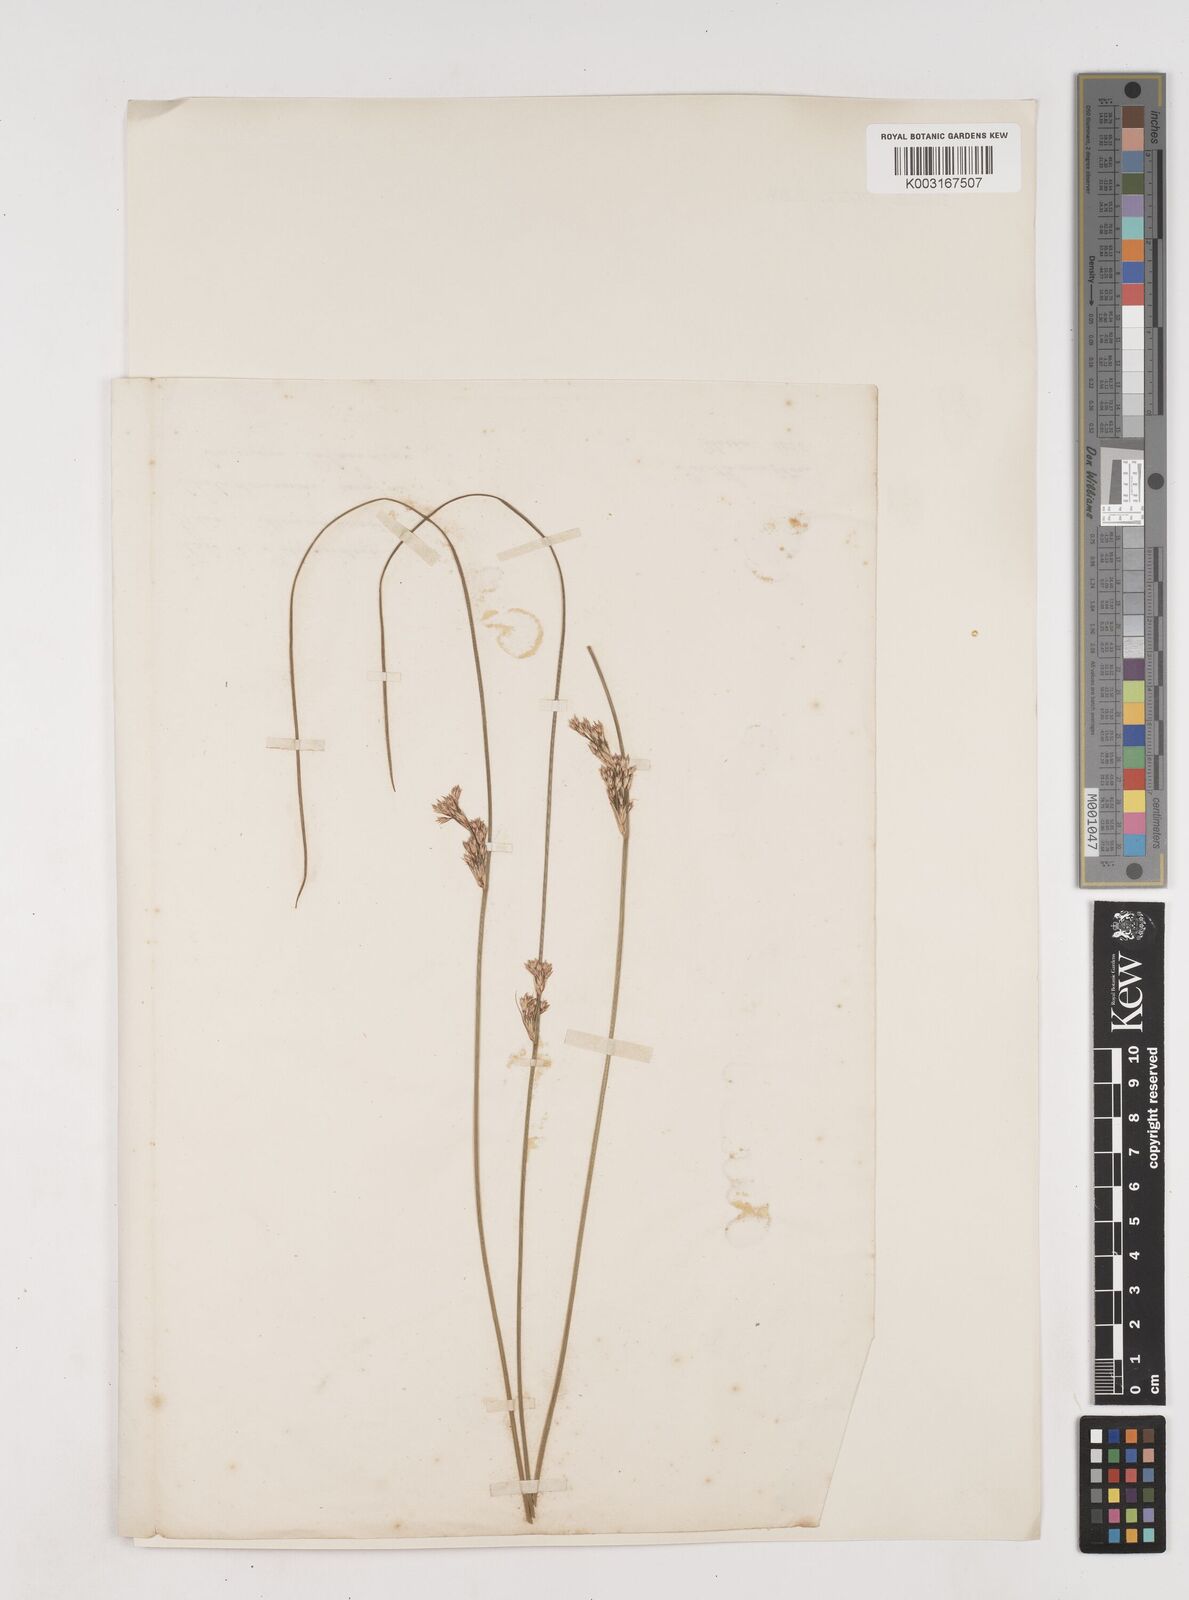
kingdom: Plantae
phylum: Tracheophyta
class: Liliopsida
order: Poales
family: Juncaceae
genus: Juncus
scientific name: Juncus inflexus
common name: Hard rush
